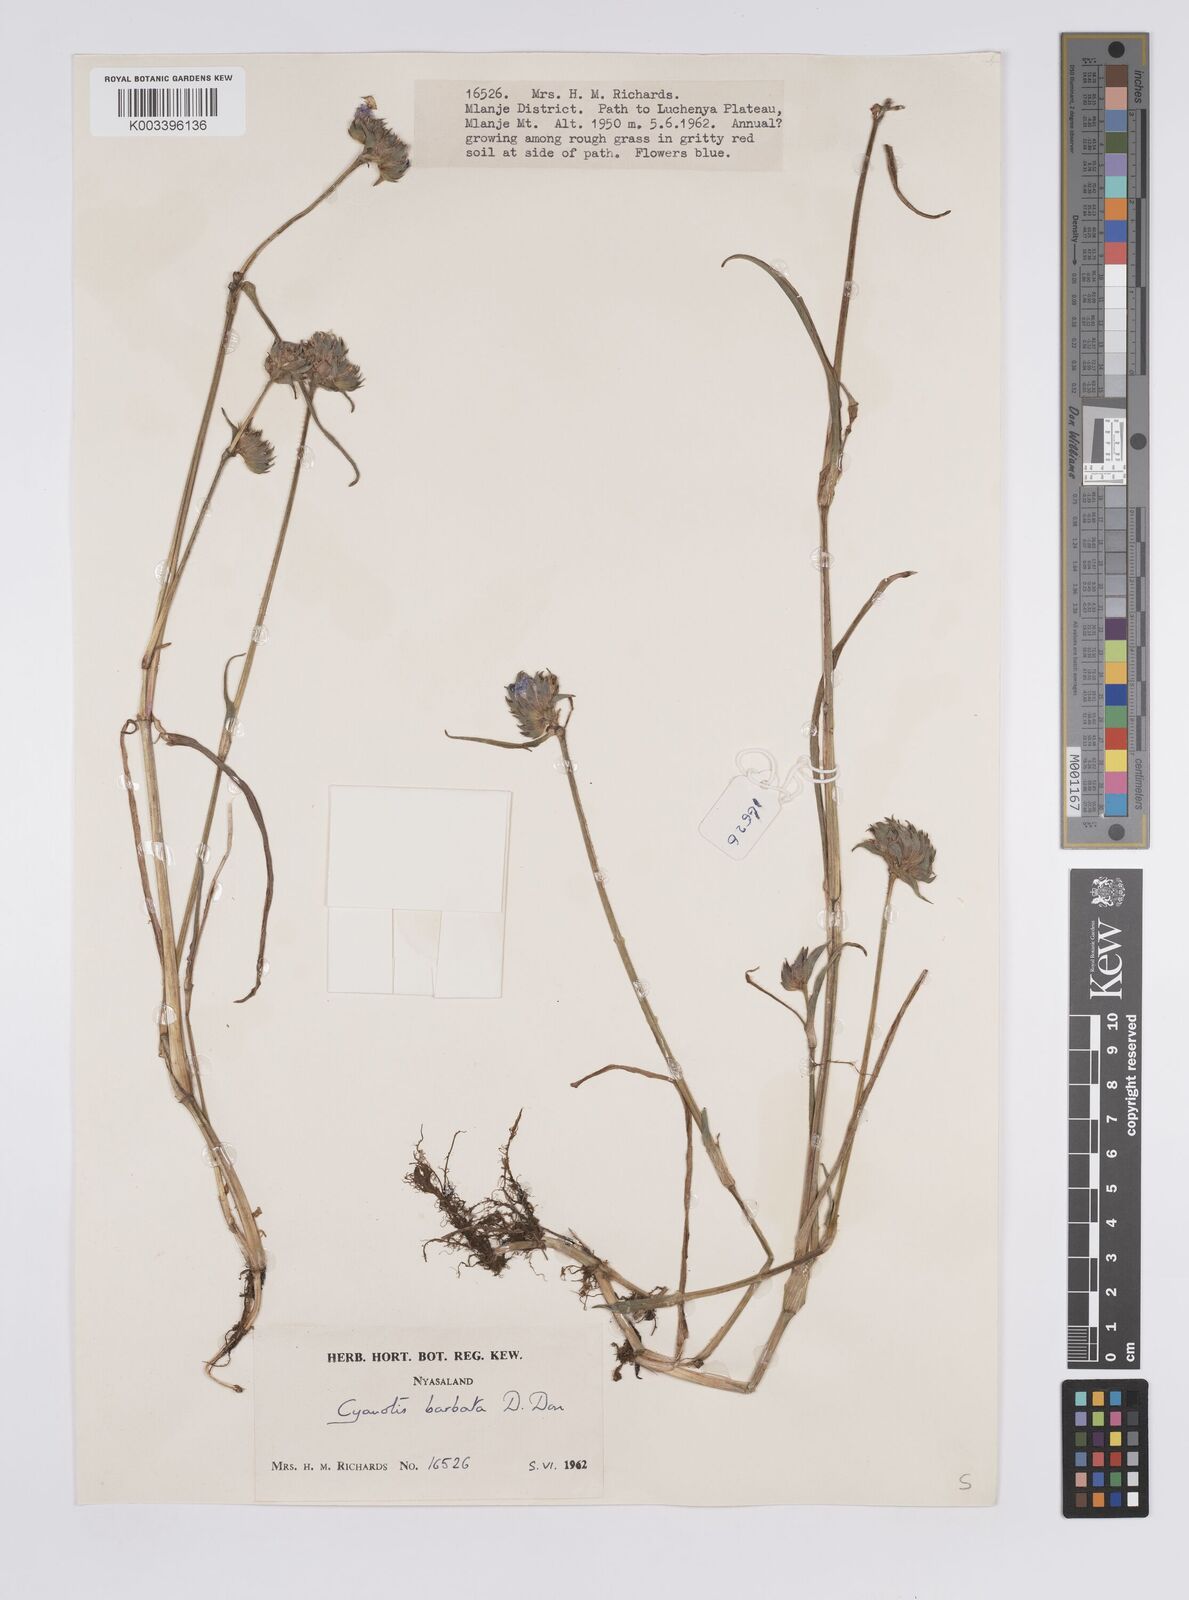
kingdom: Plantae
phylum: Tracheophyta
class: Liliopsida
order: Commelinales
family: Commelinaceae
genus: Cyanotis
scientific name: Cyanotis vaga
